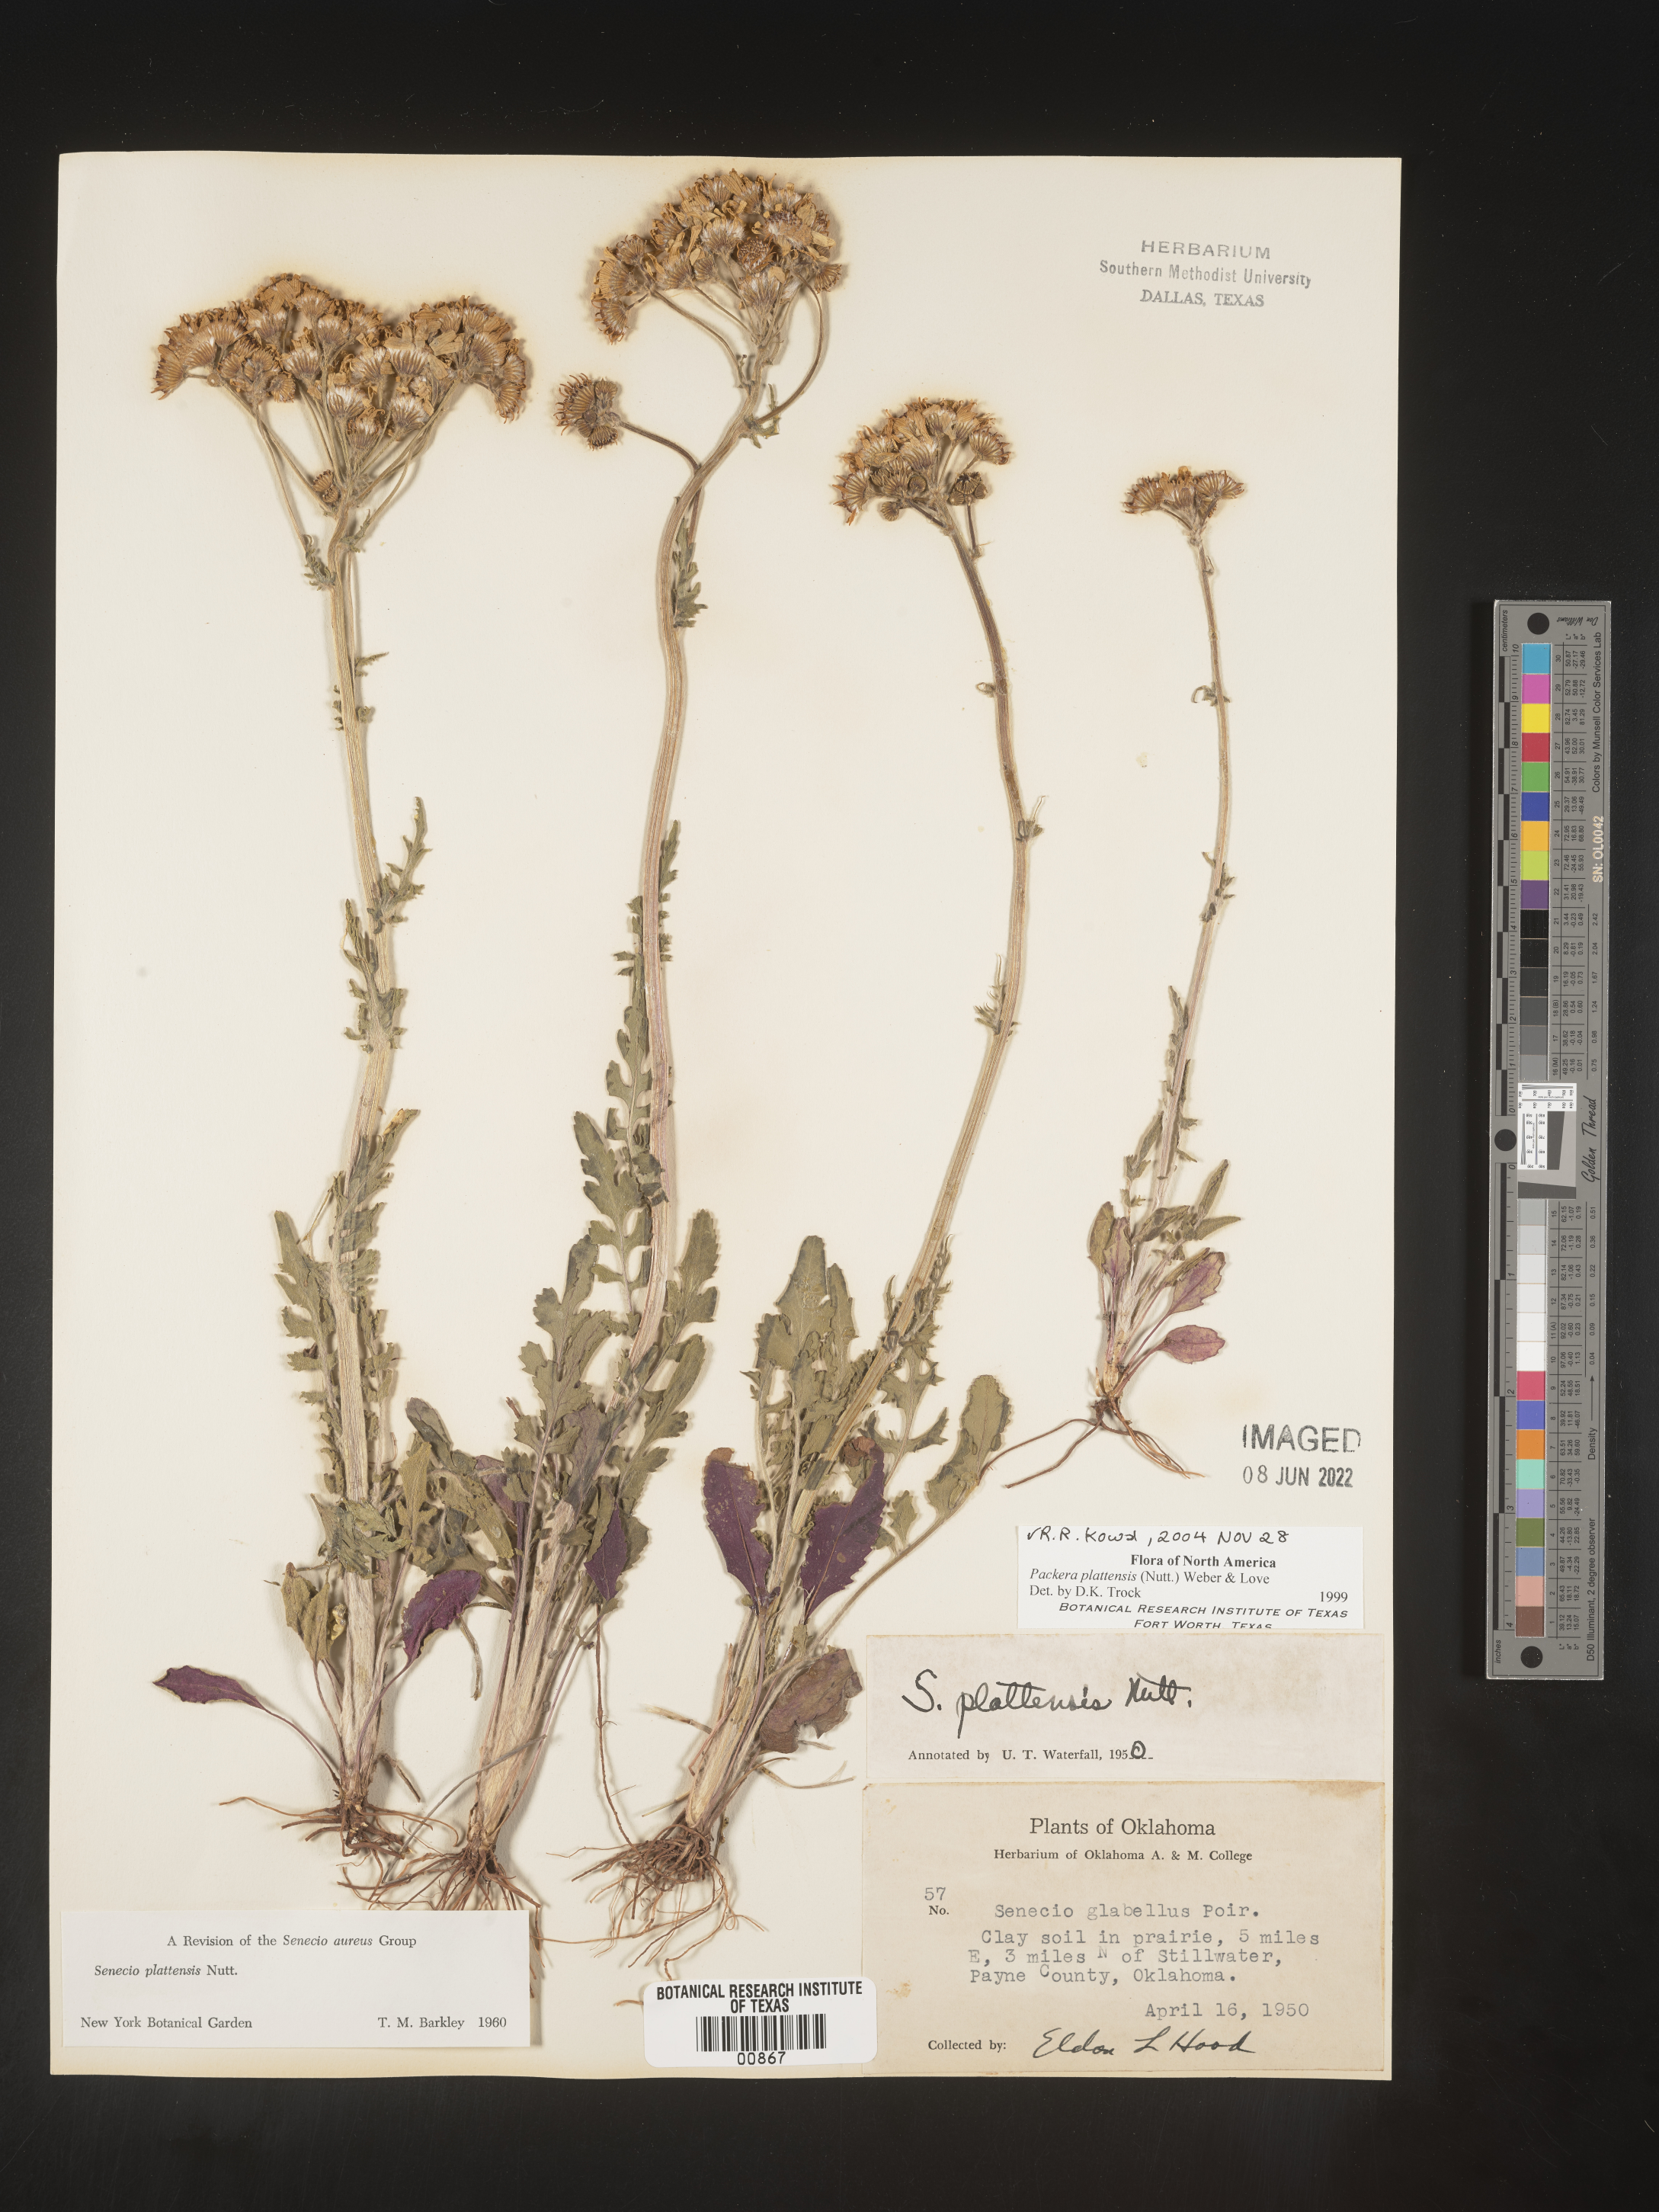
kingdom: Plantae
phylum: Tracheophyta
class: Magnoliopsida
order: Asterales
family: Asteraceae
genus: Packera
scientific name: Packera plattensis
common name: Prairie groundsel
